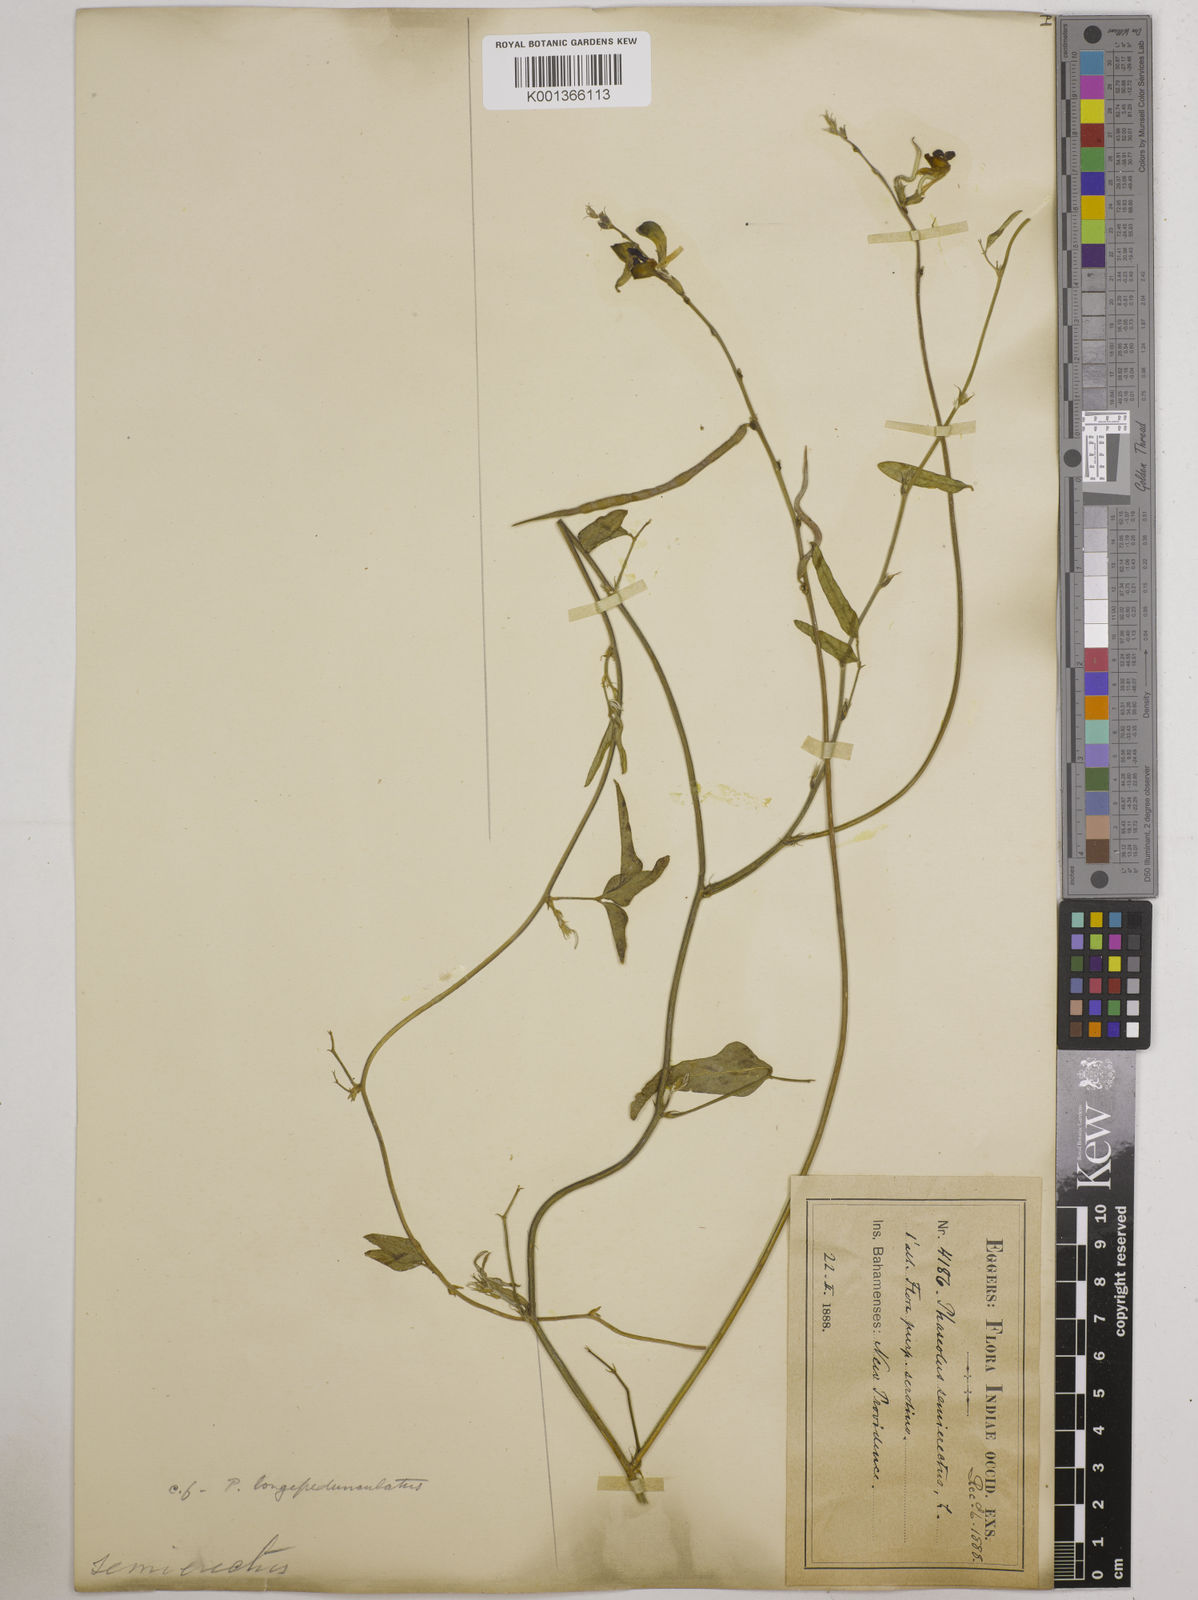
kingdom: Plantae
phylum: Tracheophyta
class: Magnoliopsida
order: Fabales
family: Fabaceae
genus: Macroptilium
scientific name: Macroptilium lathyroides
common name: Wild bushbean
